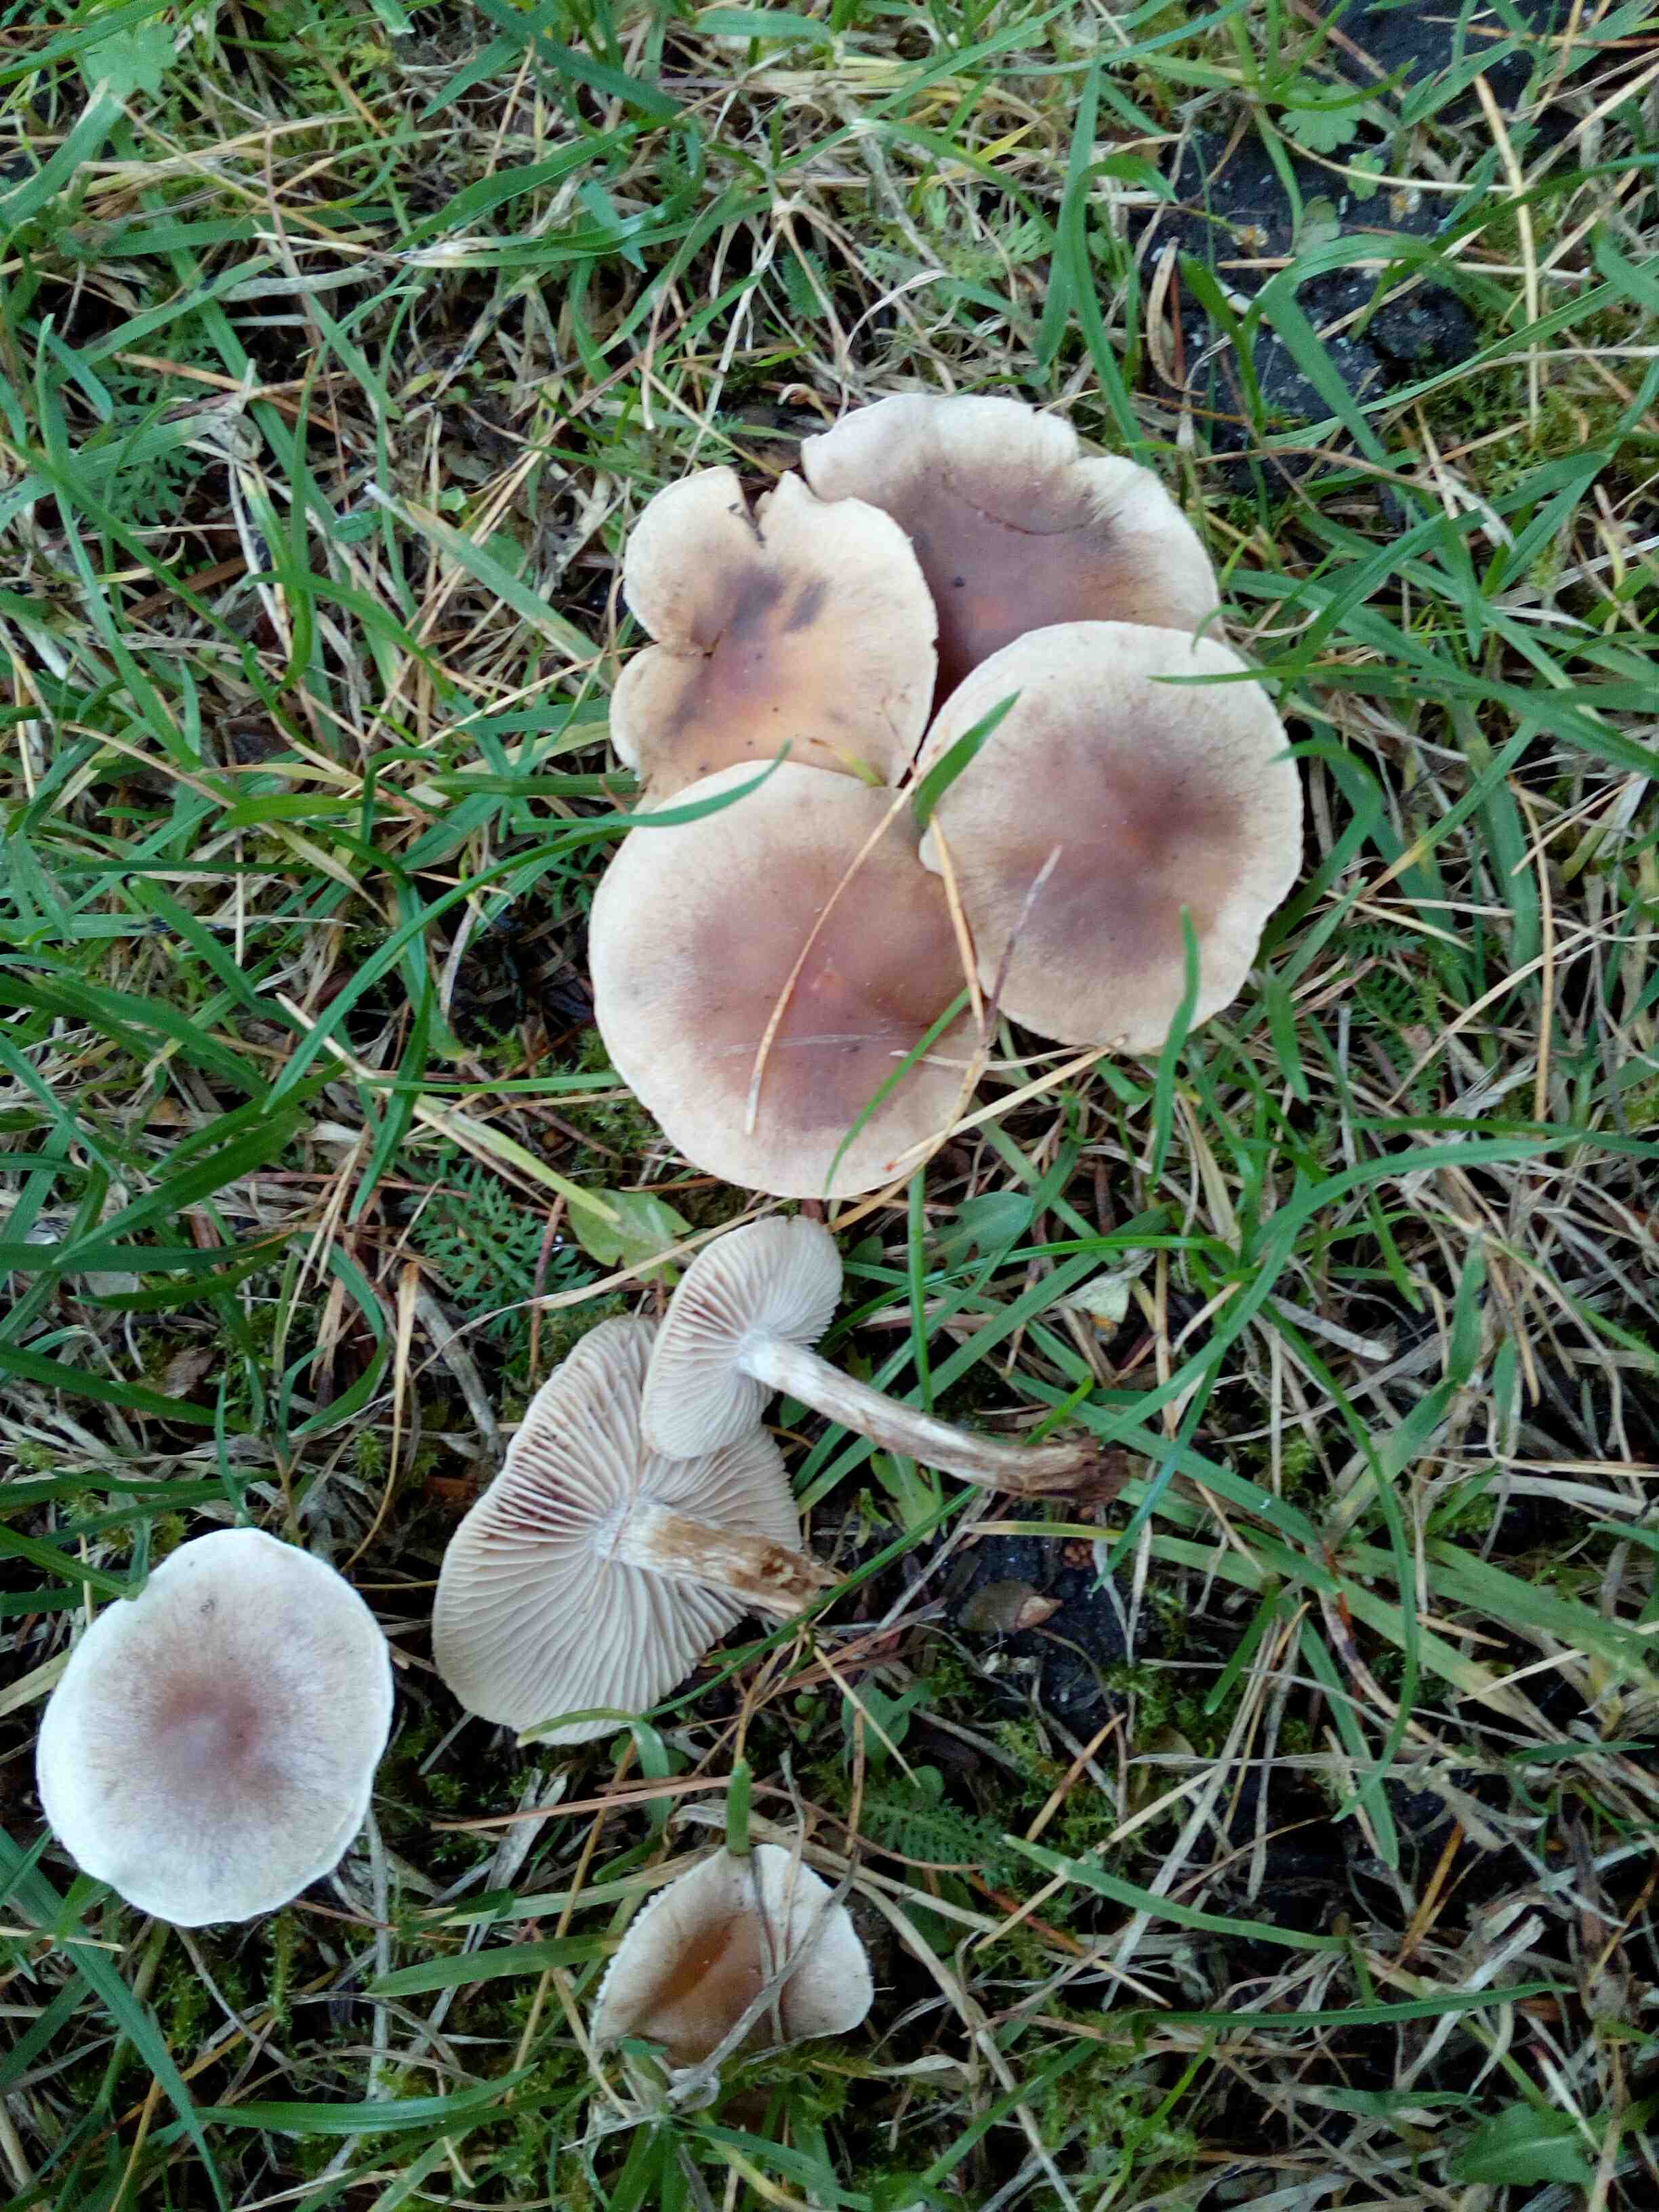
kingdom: Fungi
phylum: Basidiomycota
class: Agaricomycetes
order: Agaricales
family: Hymenogastraceae
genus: Hebeloma
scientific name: Hebeloma mesophaeum
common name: lerbrun tåreblad
